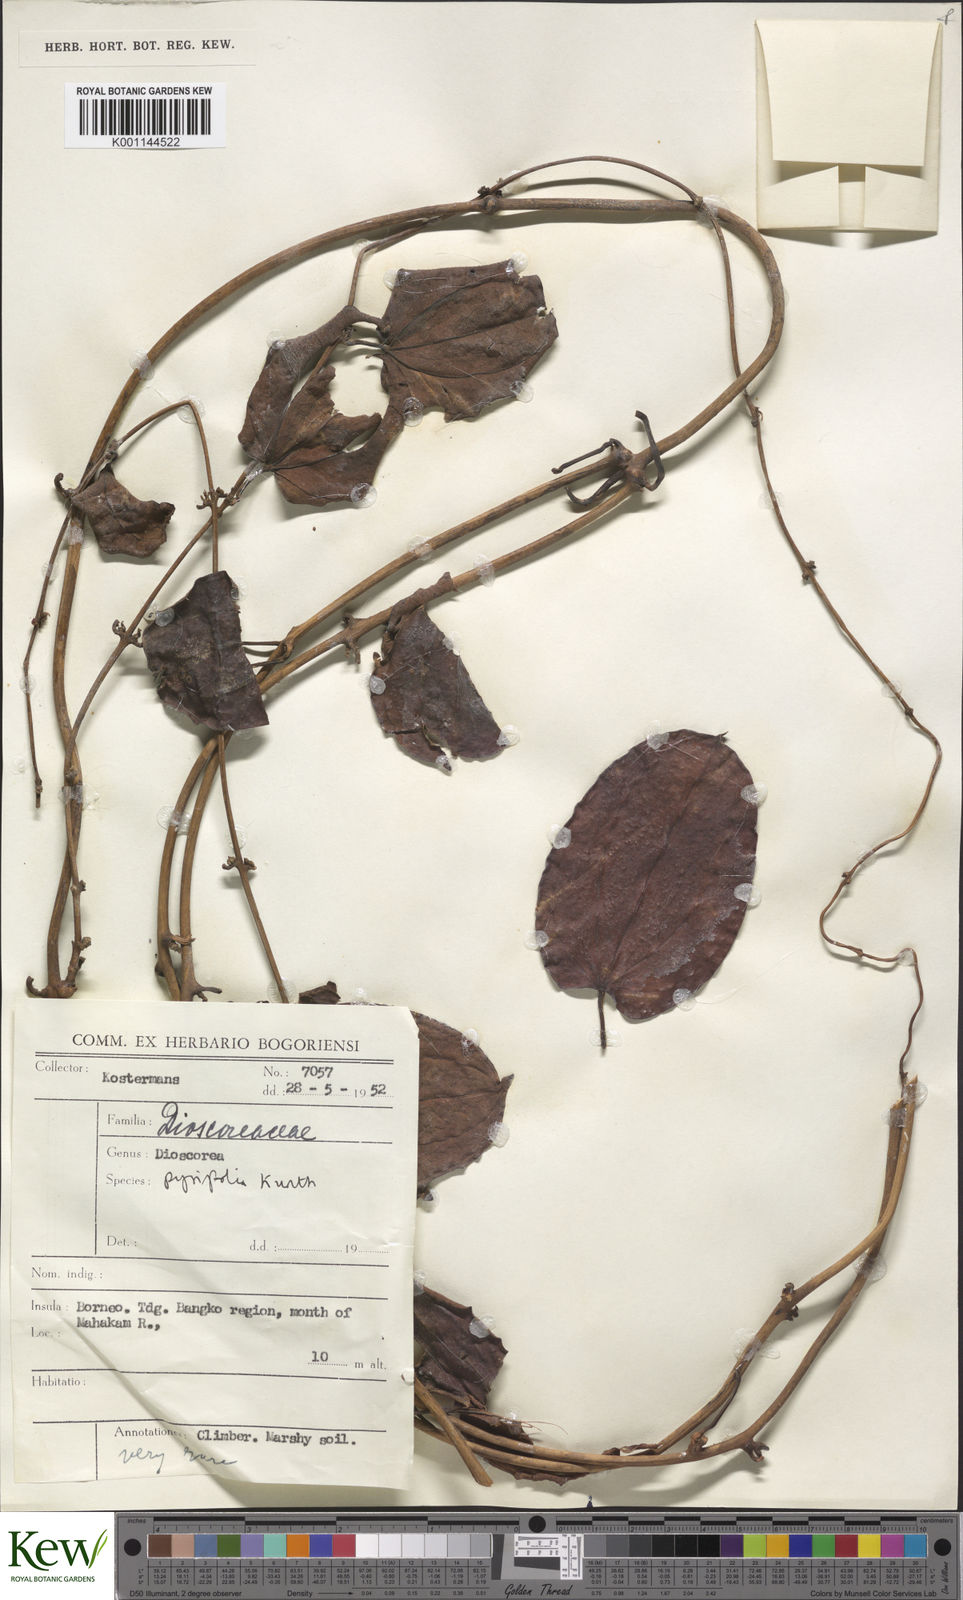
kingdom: Plantae
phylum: Tracheophyta
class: Liliopsida
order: Dioscoreales
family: Dioscoreaceae
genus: Dioscorea
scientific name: Dioscorea pyrifolia
